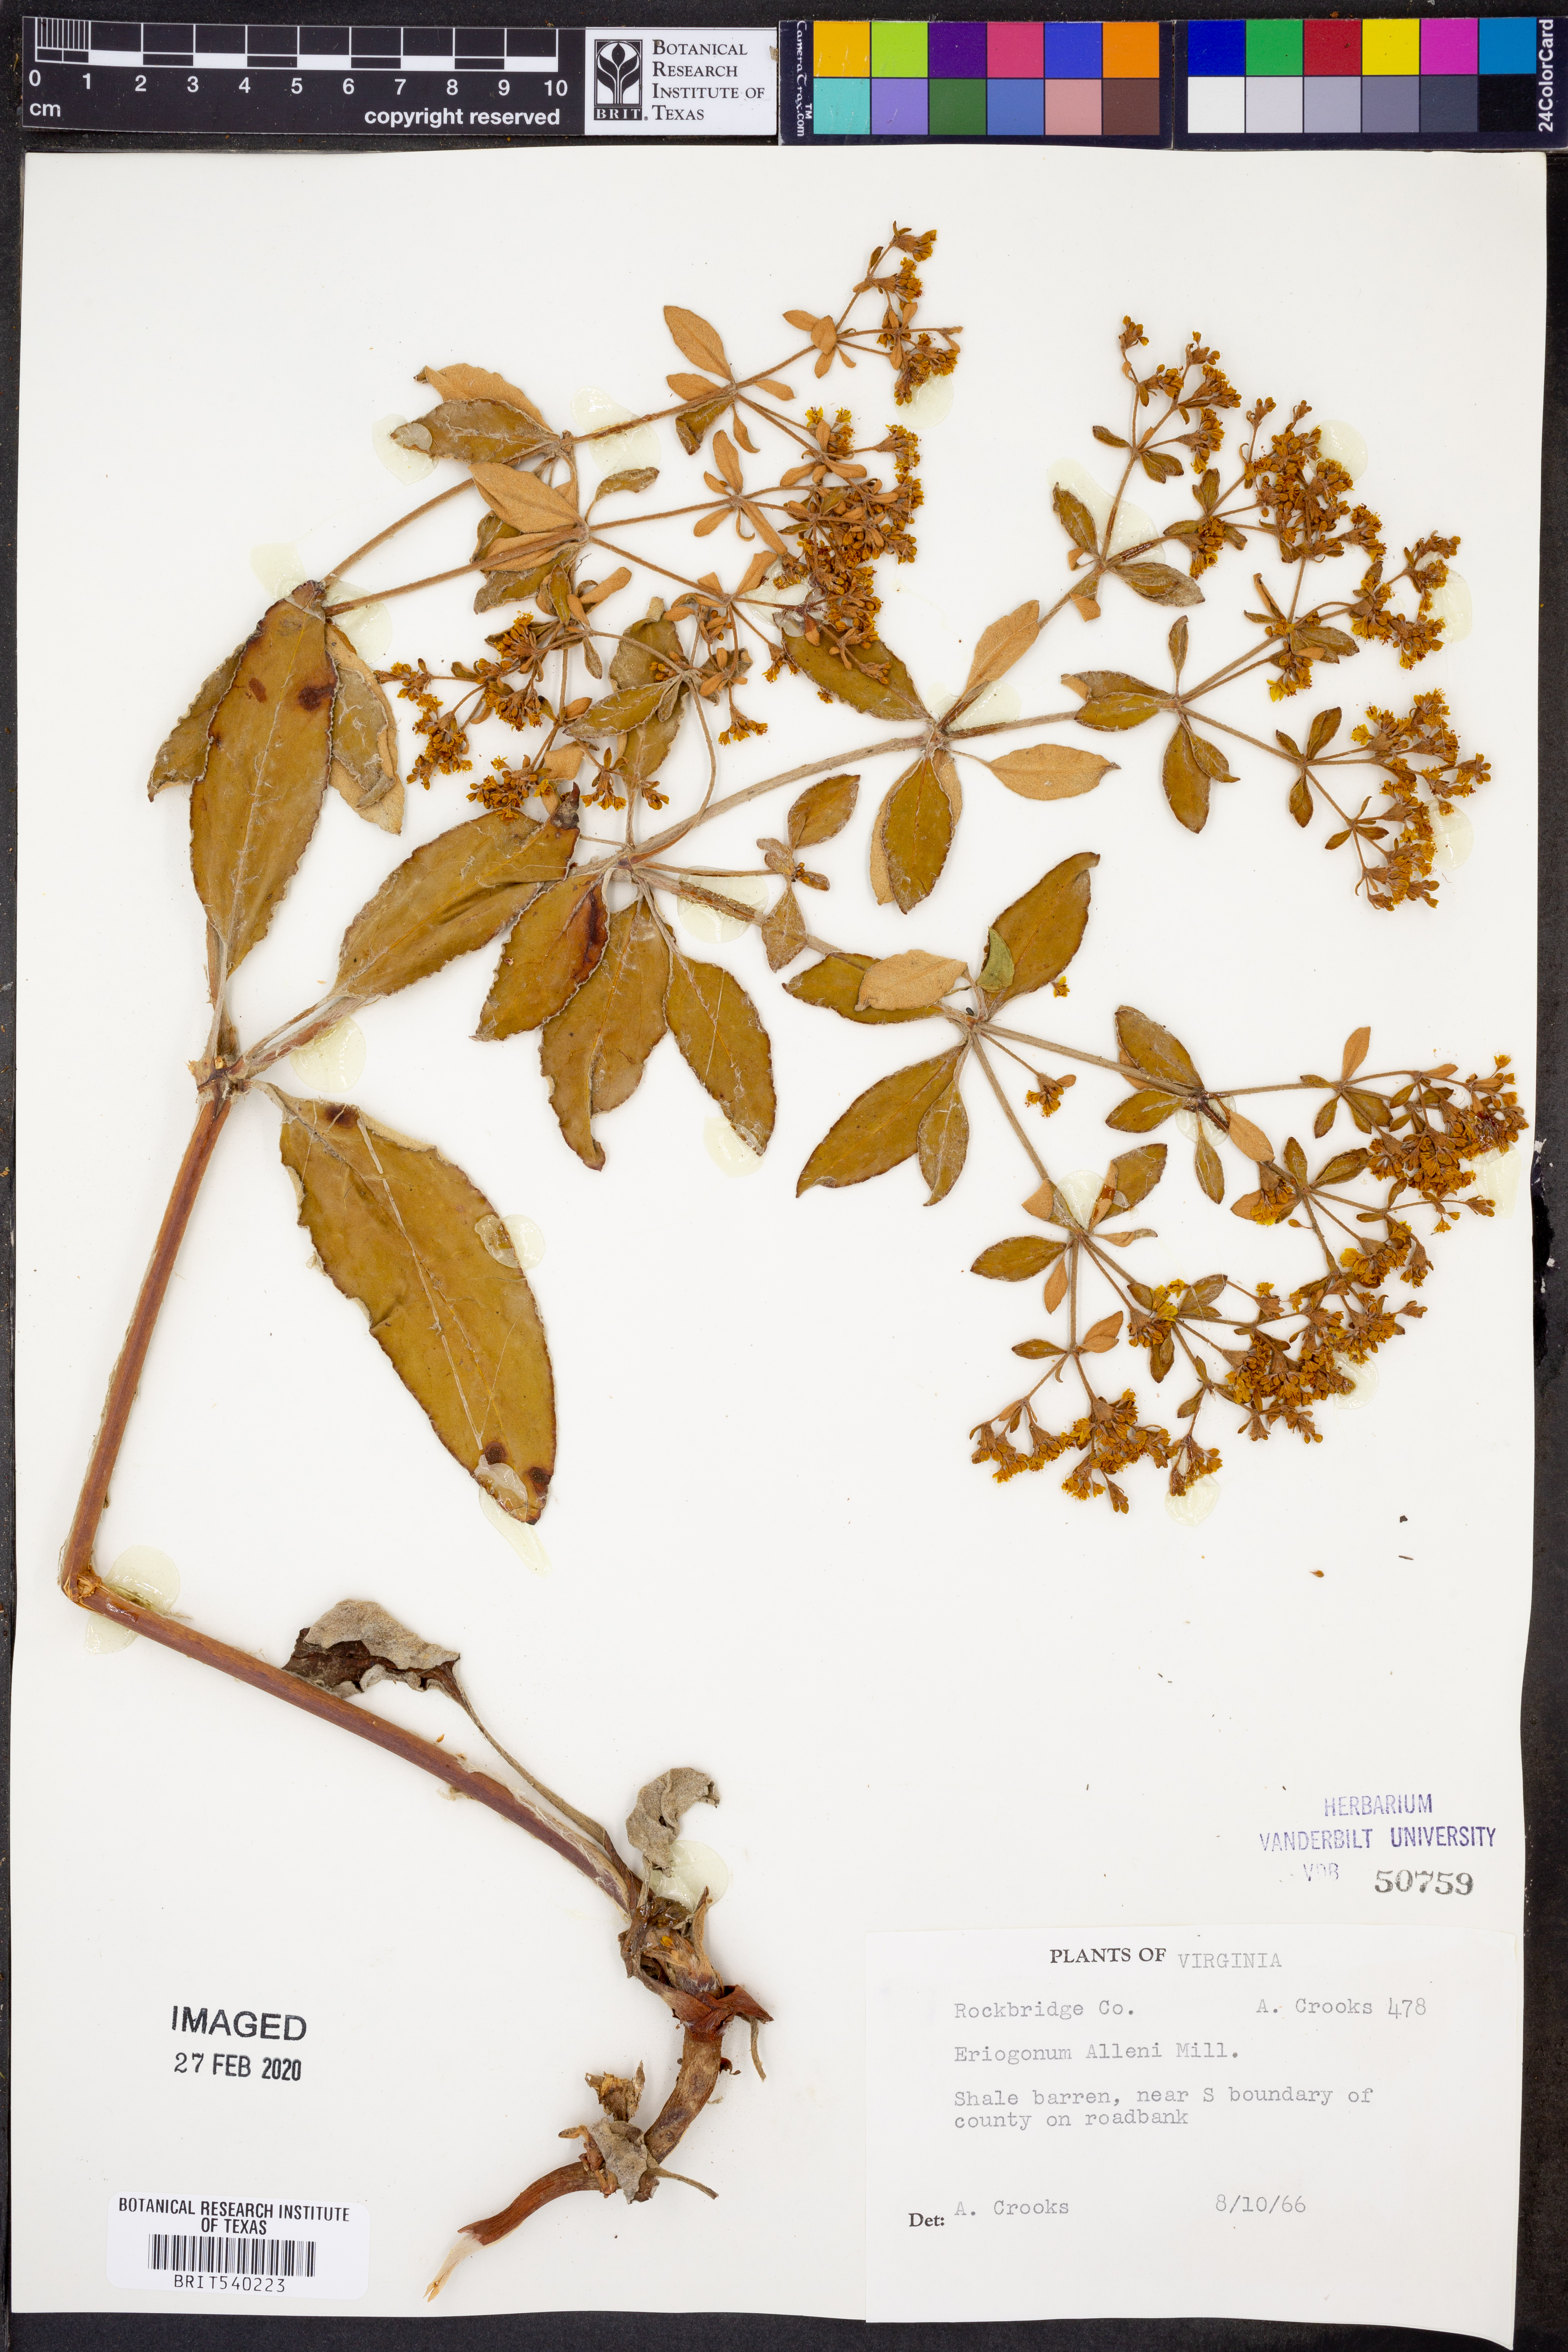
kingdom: Plantae
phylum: Tracheophyta
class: Magnoliopsida
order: Caryophyllales
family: Polygonaceae
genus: Eriogonum
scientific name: Eriogonum allenii
